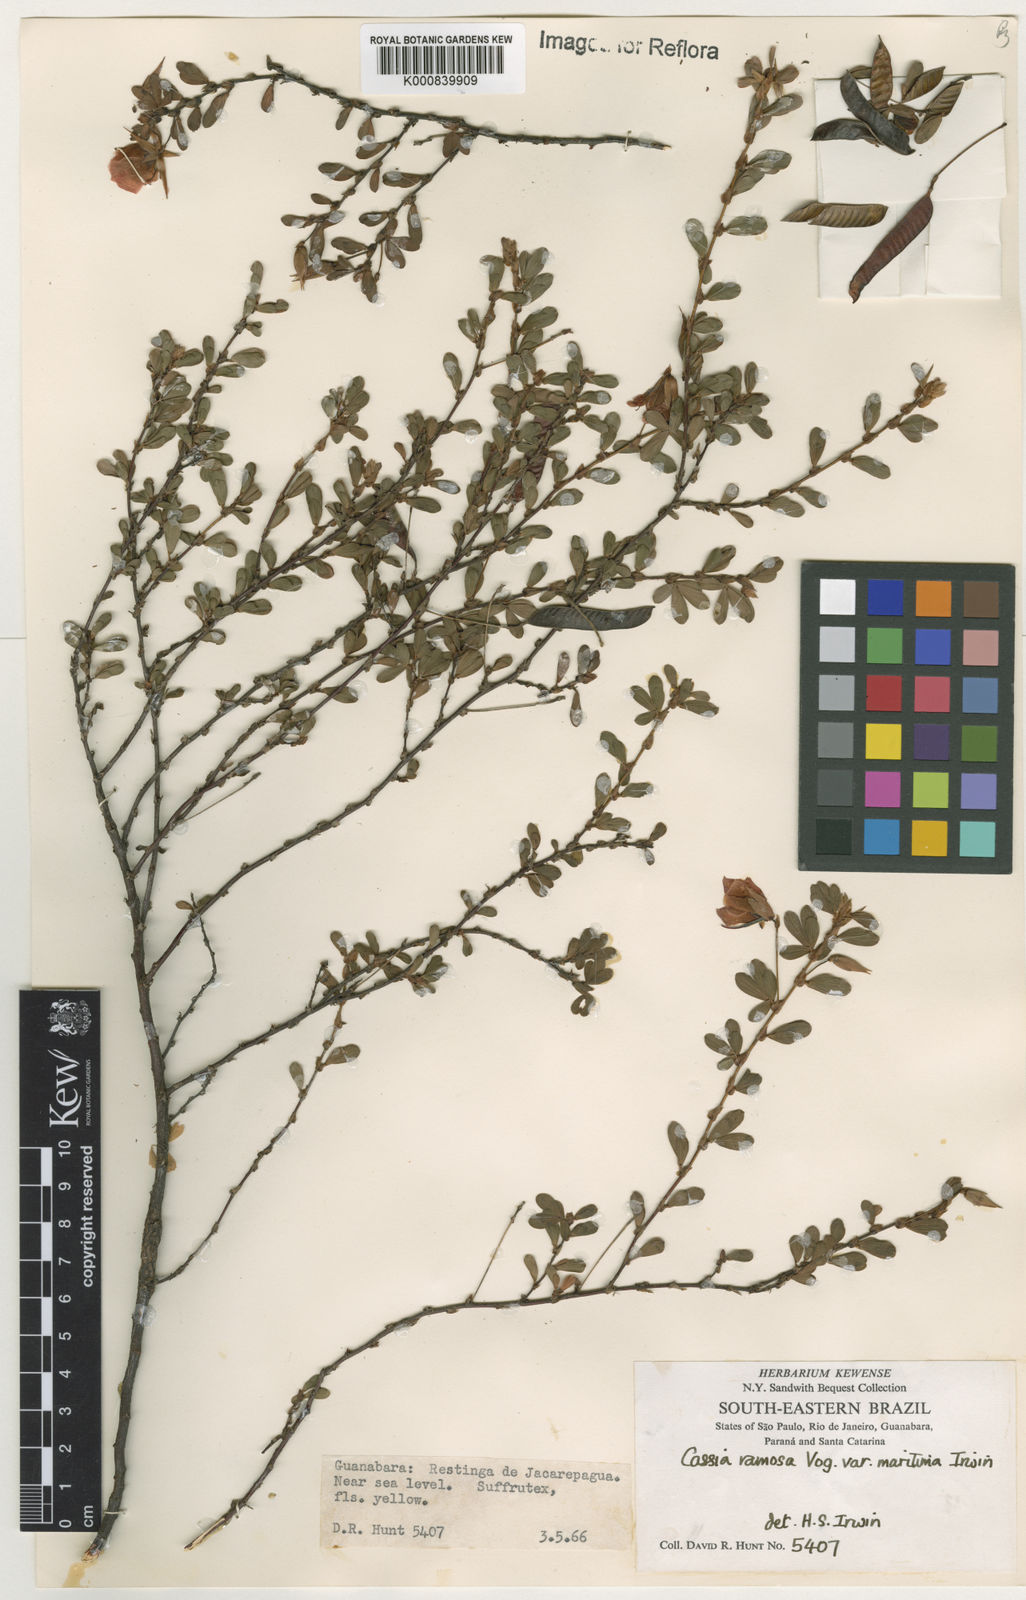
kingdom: Plantae
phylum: Tracheophyta
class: Magnoliopsida
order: Fabales
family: Fabaceae
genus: Chamaecrista
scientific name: Chamaecrista ramosa
